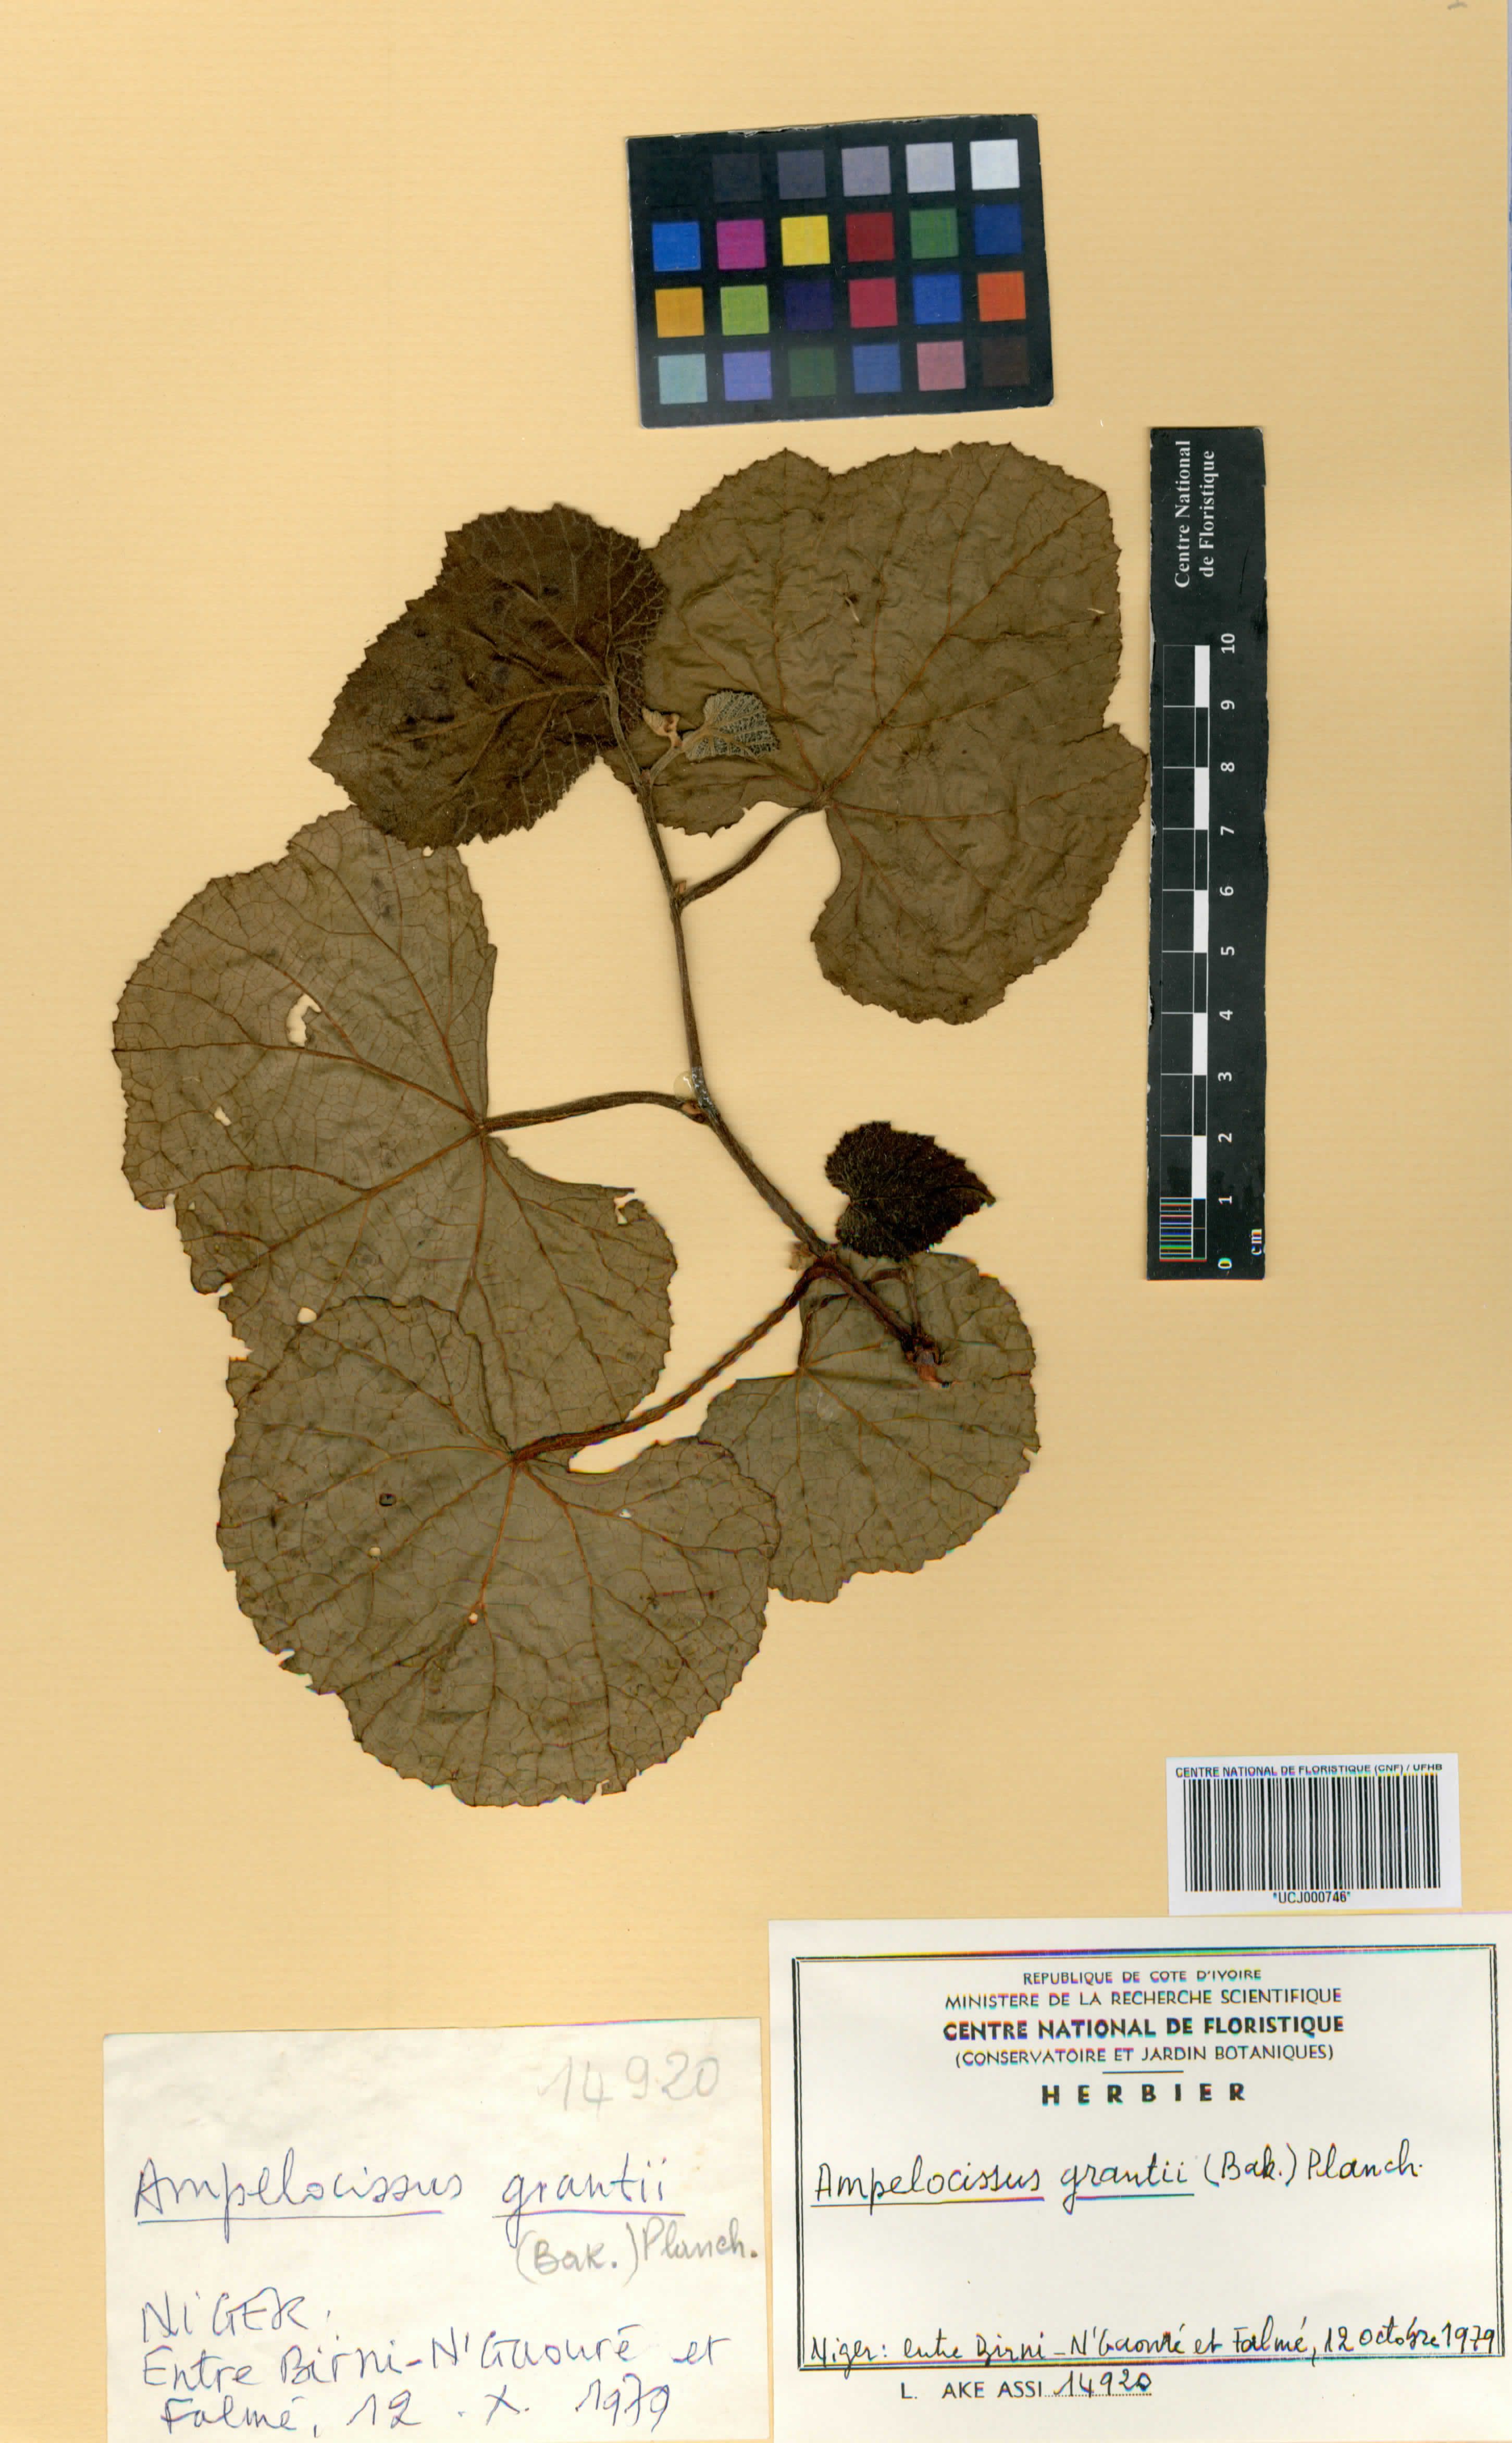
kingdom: Plantae
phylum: Tracheophyta
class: Magnoliopsida
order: Vitales
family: Vitaceae
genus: Ampelocissus
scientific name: Ampelocissus africana
